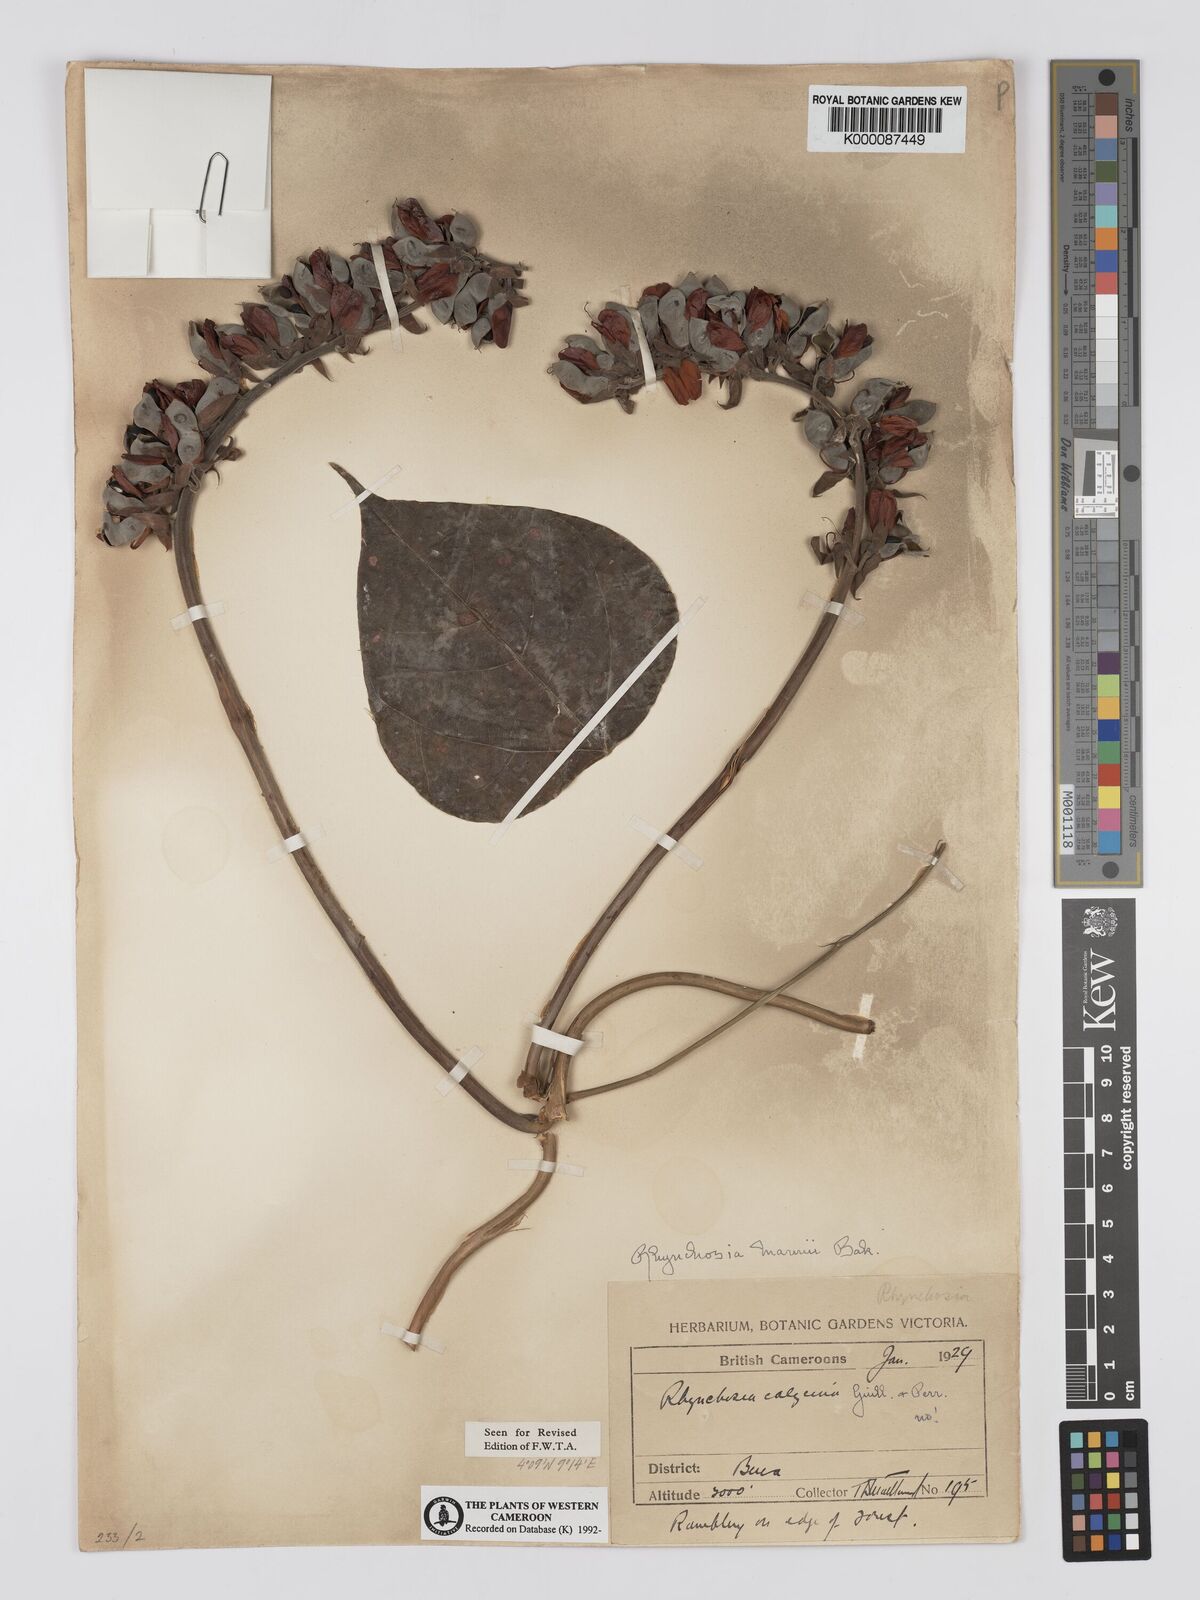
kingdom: Plantae
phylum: Tracheophyta
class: Magnoliopsida
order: Fabales
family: Fabaceae
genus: Rhynchosia
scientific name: Rhynchosia mannii
